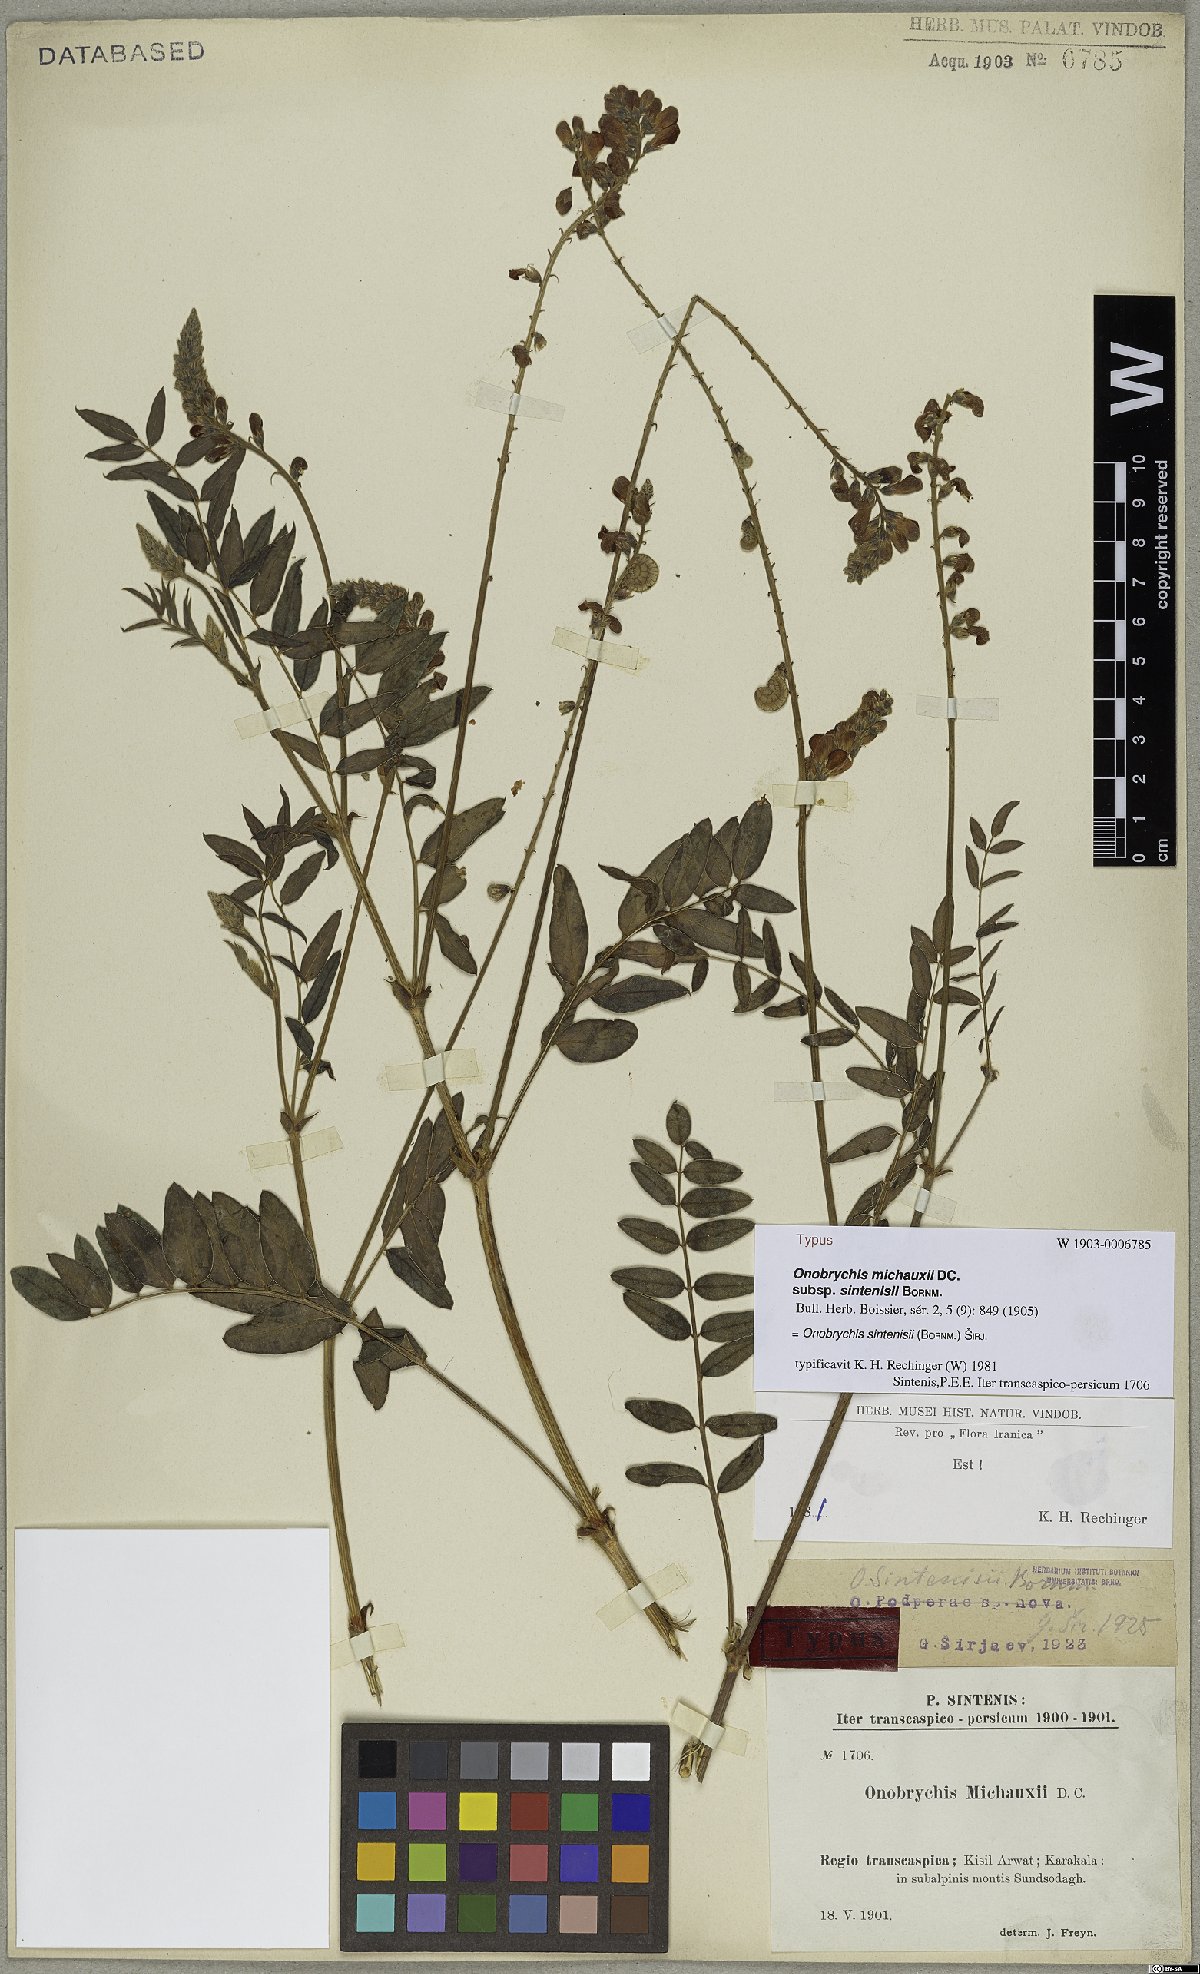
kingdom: Plantae
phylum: Tracheophyta
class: Magnoliopsida
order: Fabales
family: Fabaceae
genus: Onobrychis
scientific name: Onobrychis sintenisii
